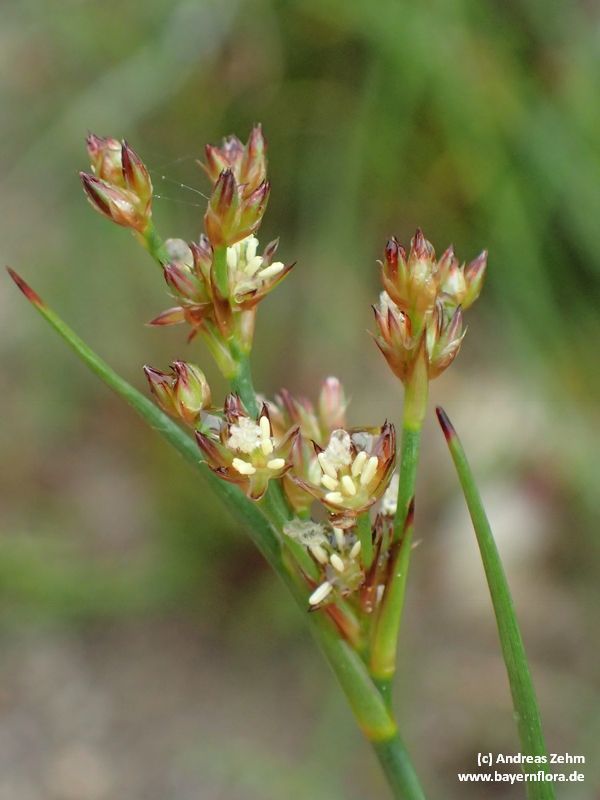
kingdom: Plantae
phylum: Tracheophyta
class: Liliopsida
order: Poales
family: Juncaceae
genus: Juncus
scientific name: Juncus articulatus
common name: Jointed rush
